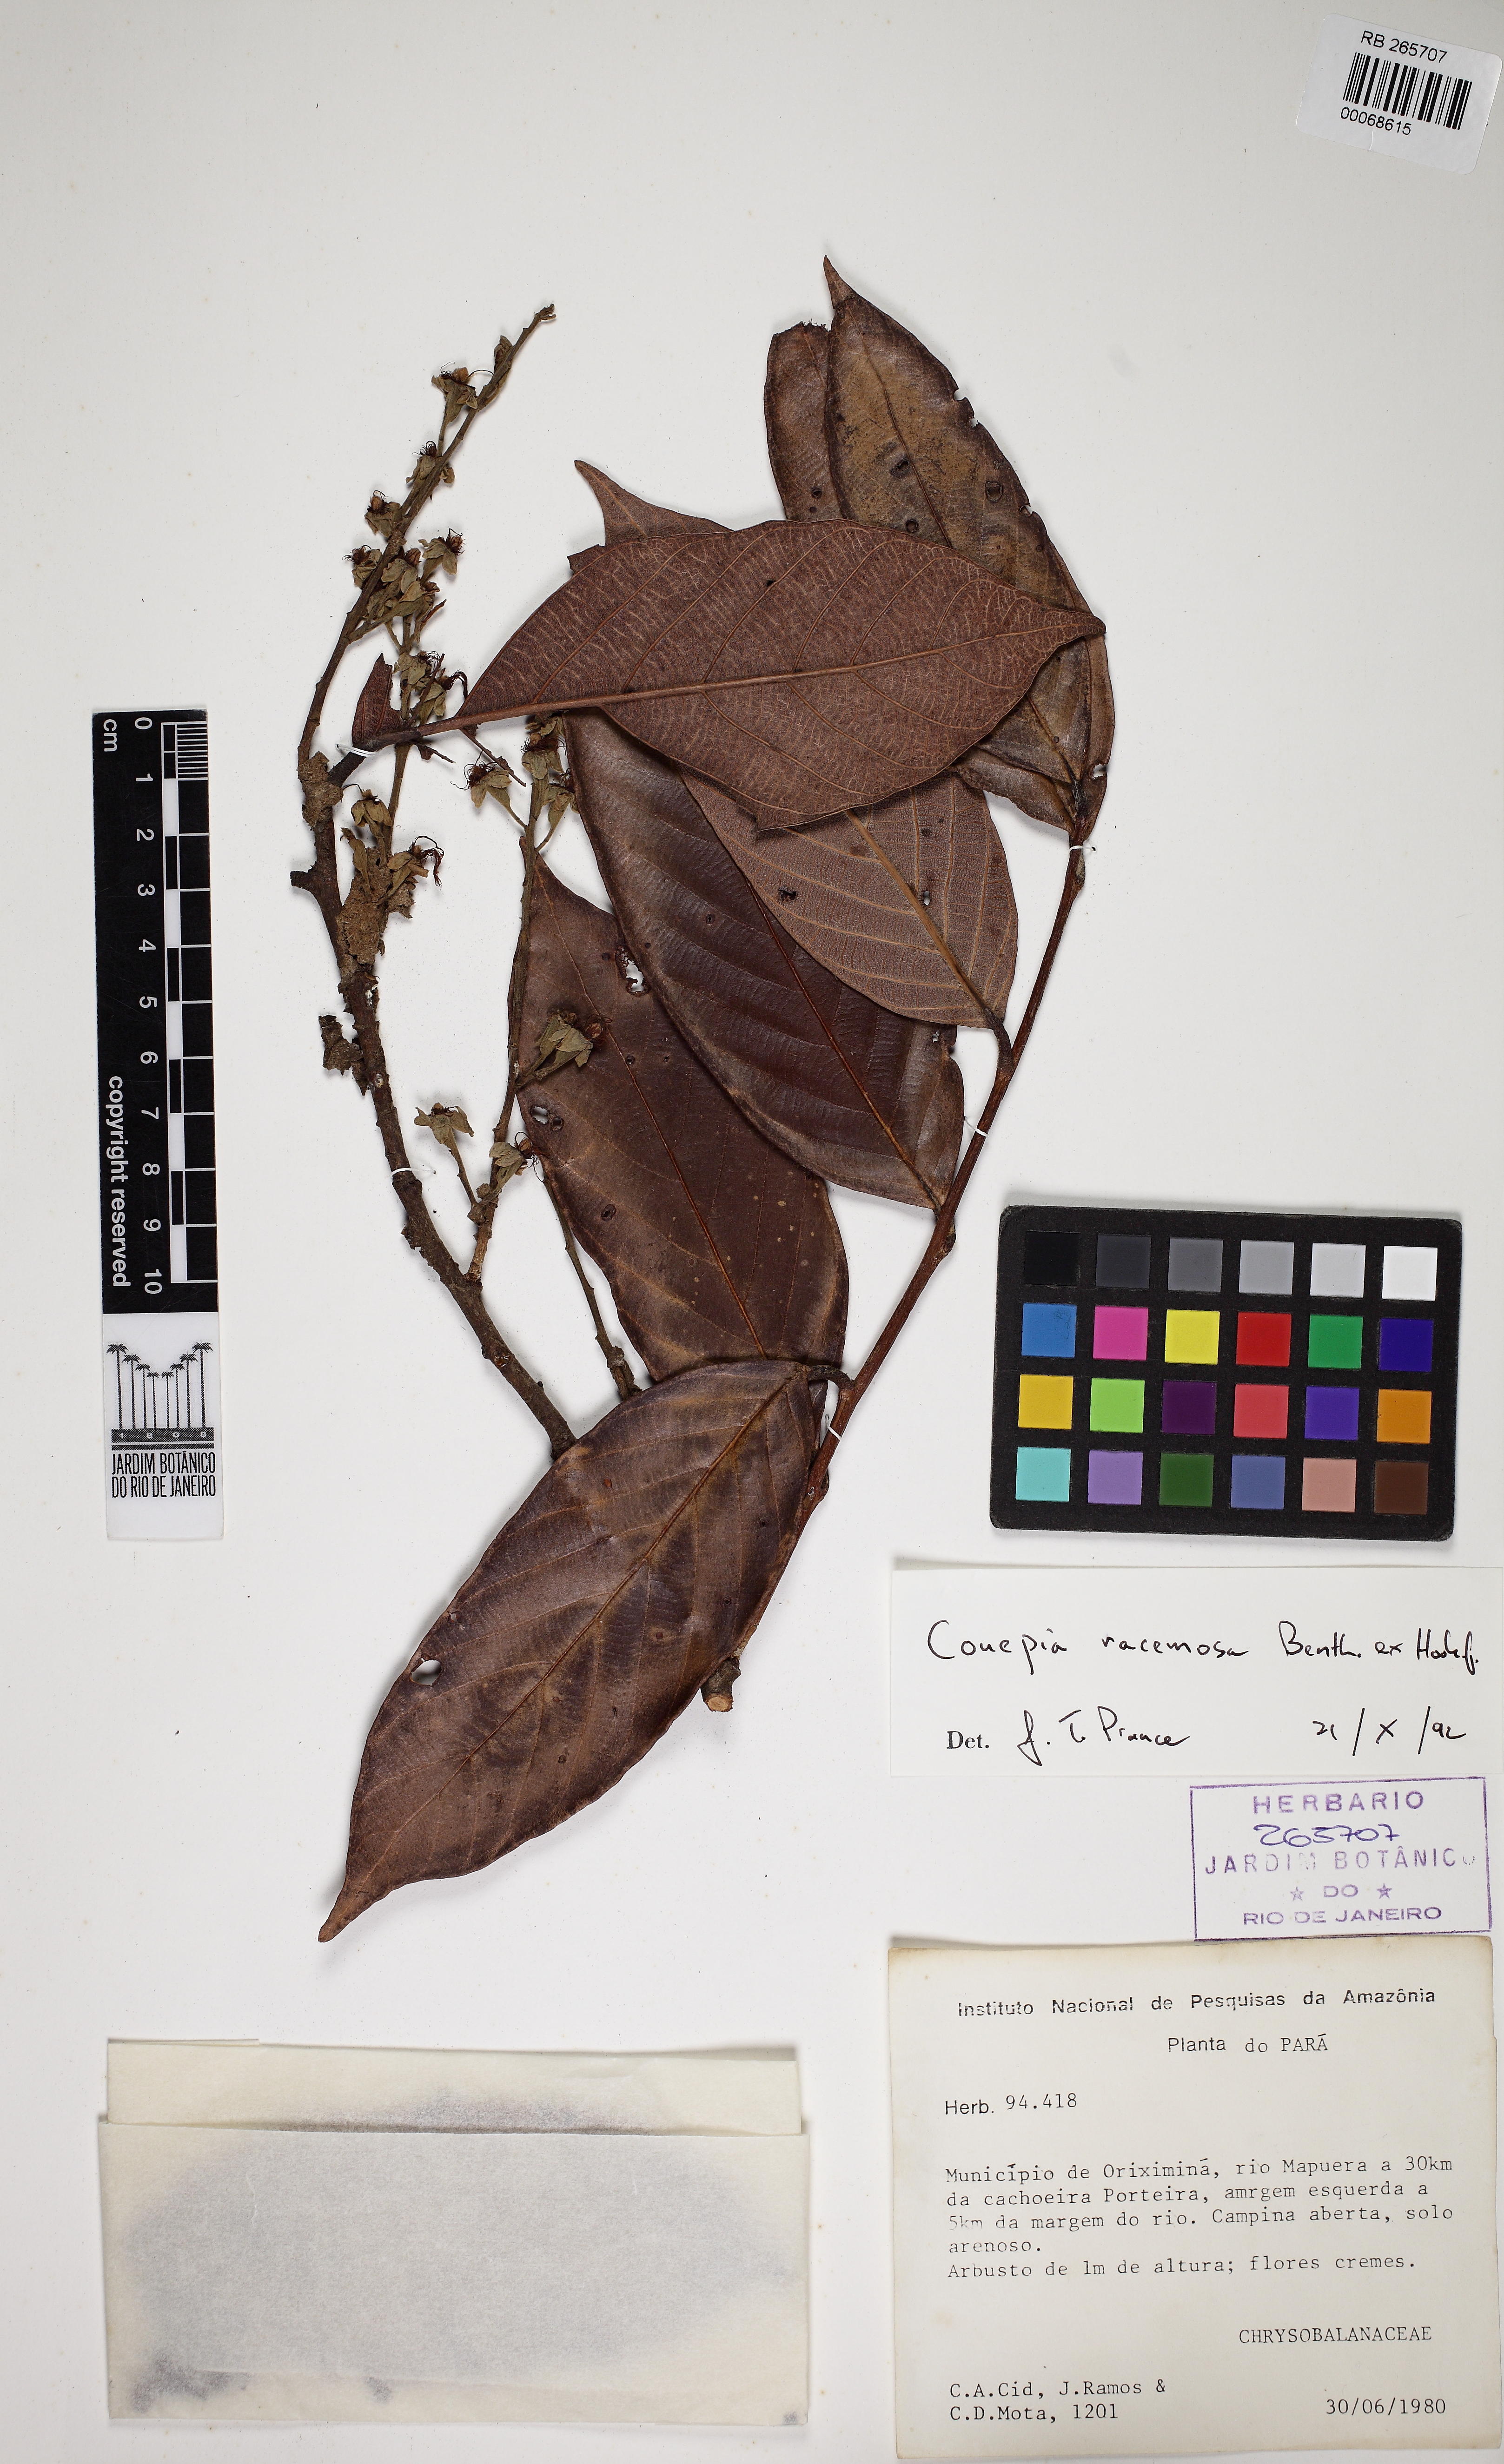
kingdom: Plantae
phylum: Tracheophyta
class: Magnoliopsida
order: Malpighiales
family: Chrysobalanaceae
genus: Gaulettia
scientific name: Gaulettia racemosa
